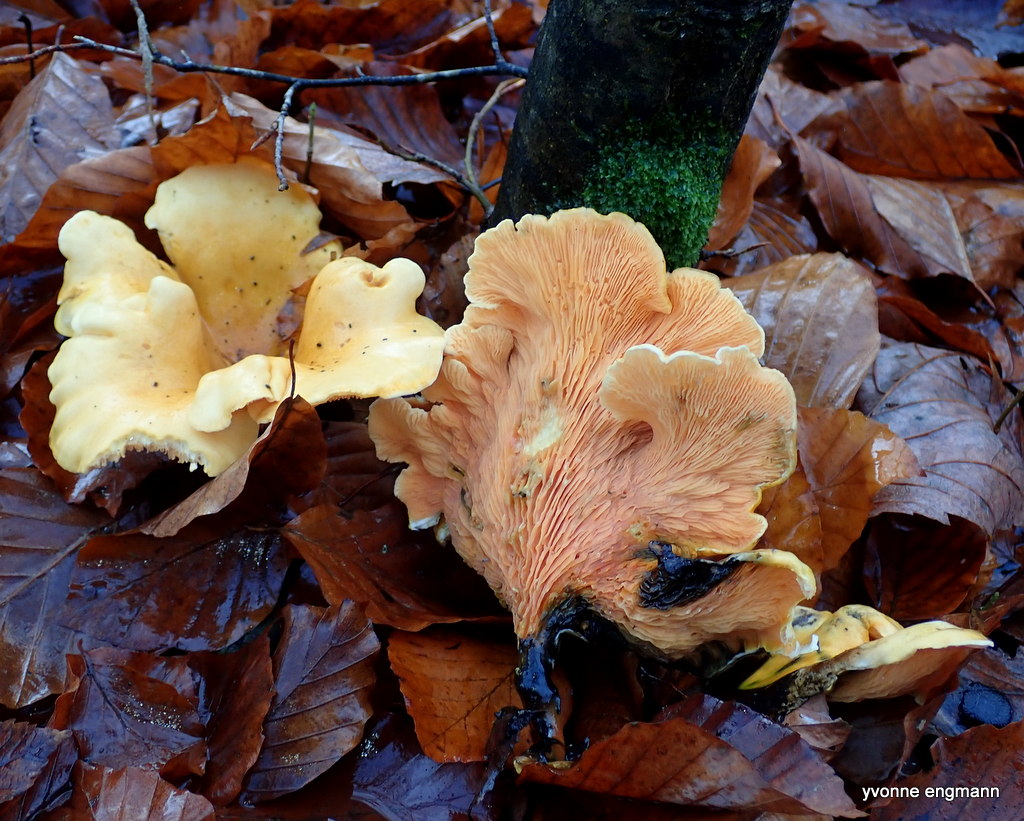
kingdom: Fungi
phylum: Basidiomycota
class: Agaricomycetes
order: Cantharellales
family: Hydnaceae
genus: Cantharellus
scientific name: Cantharellus
